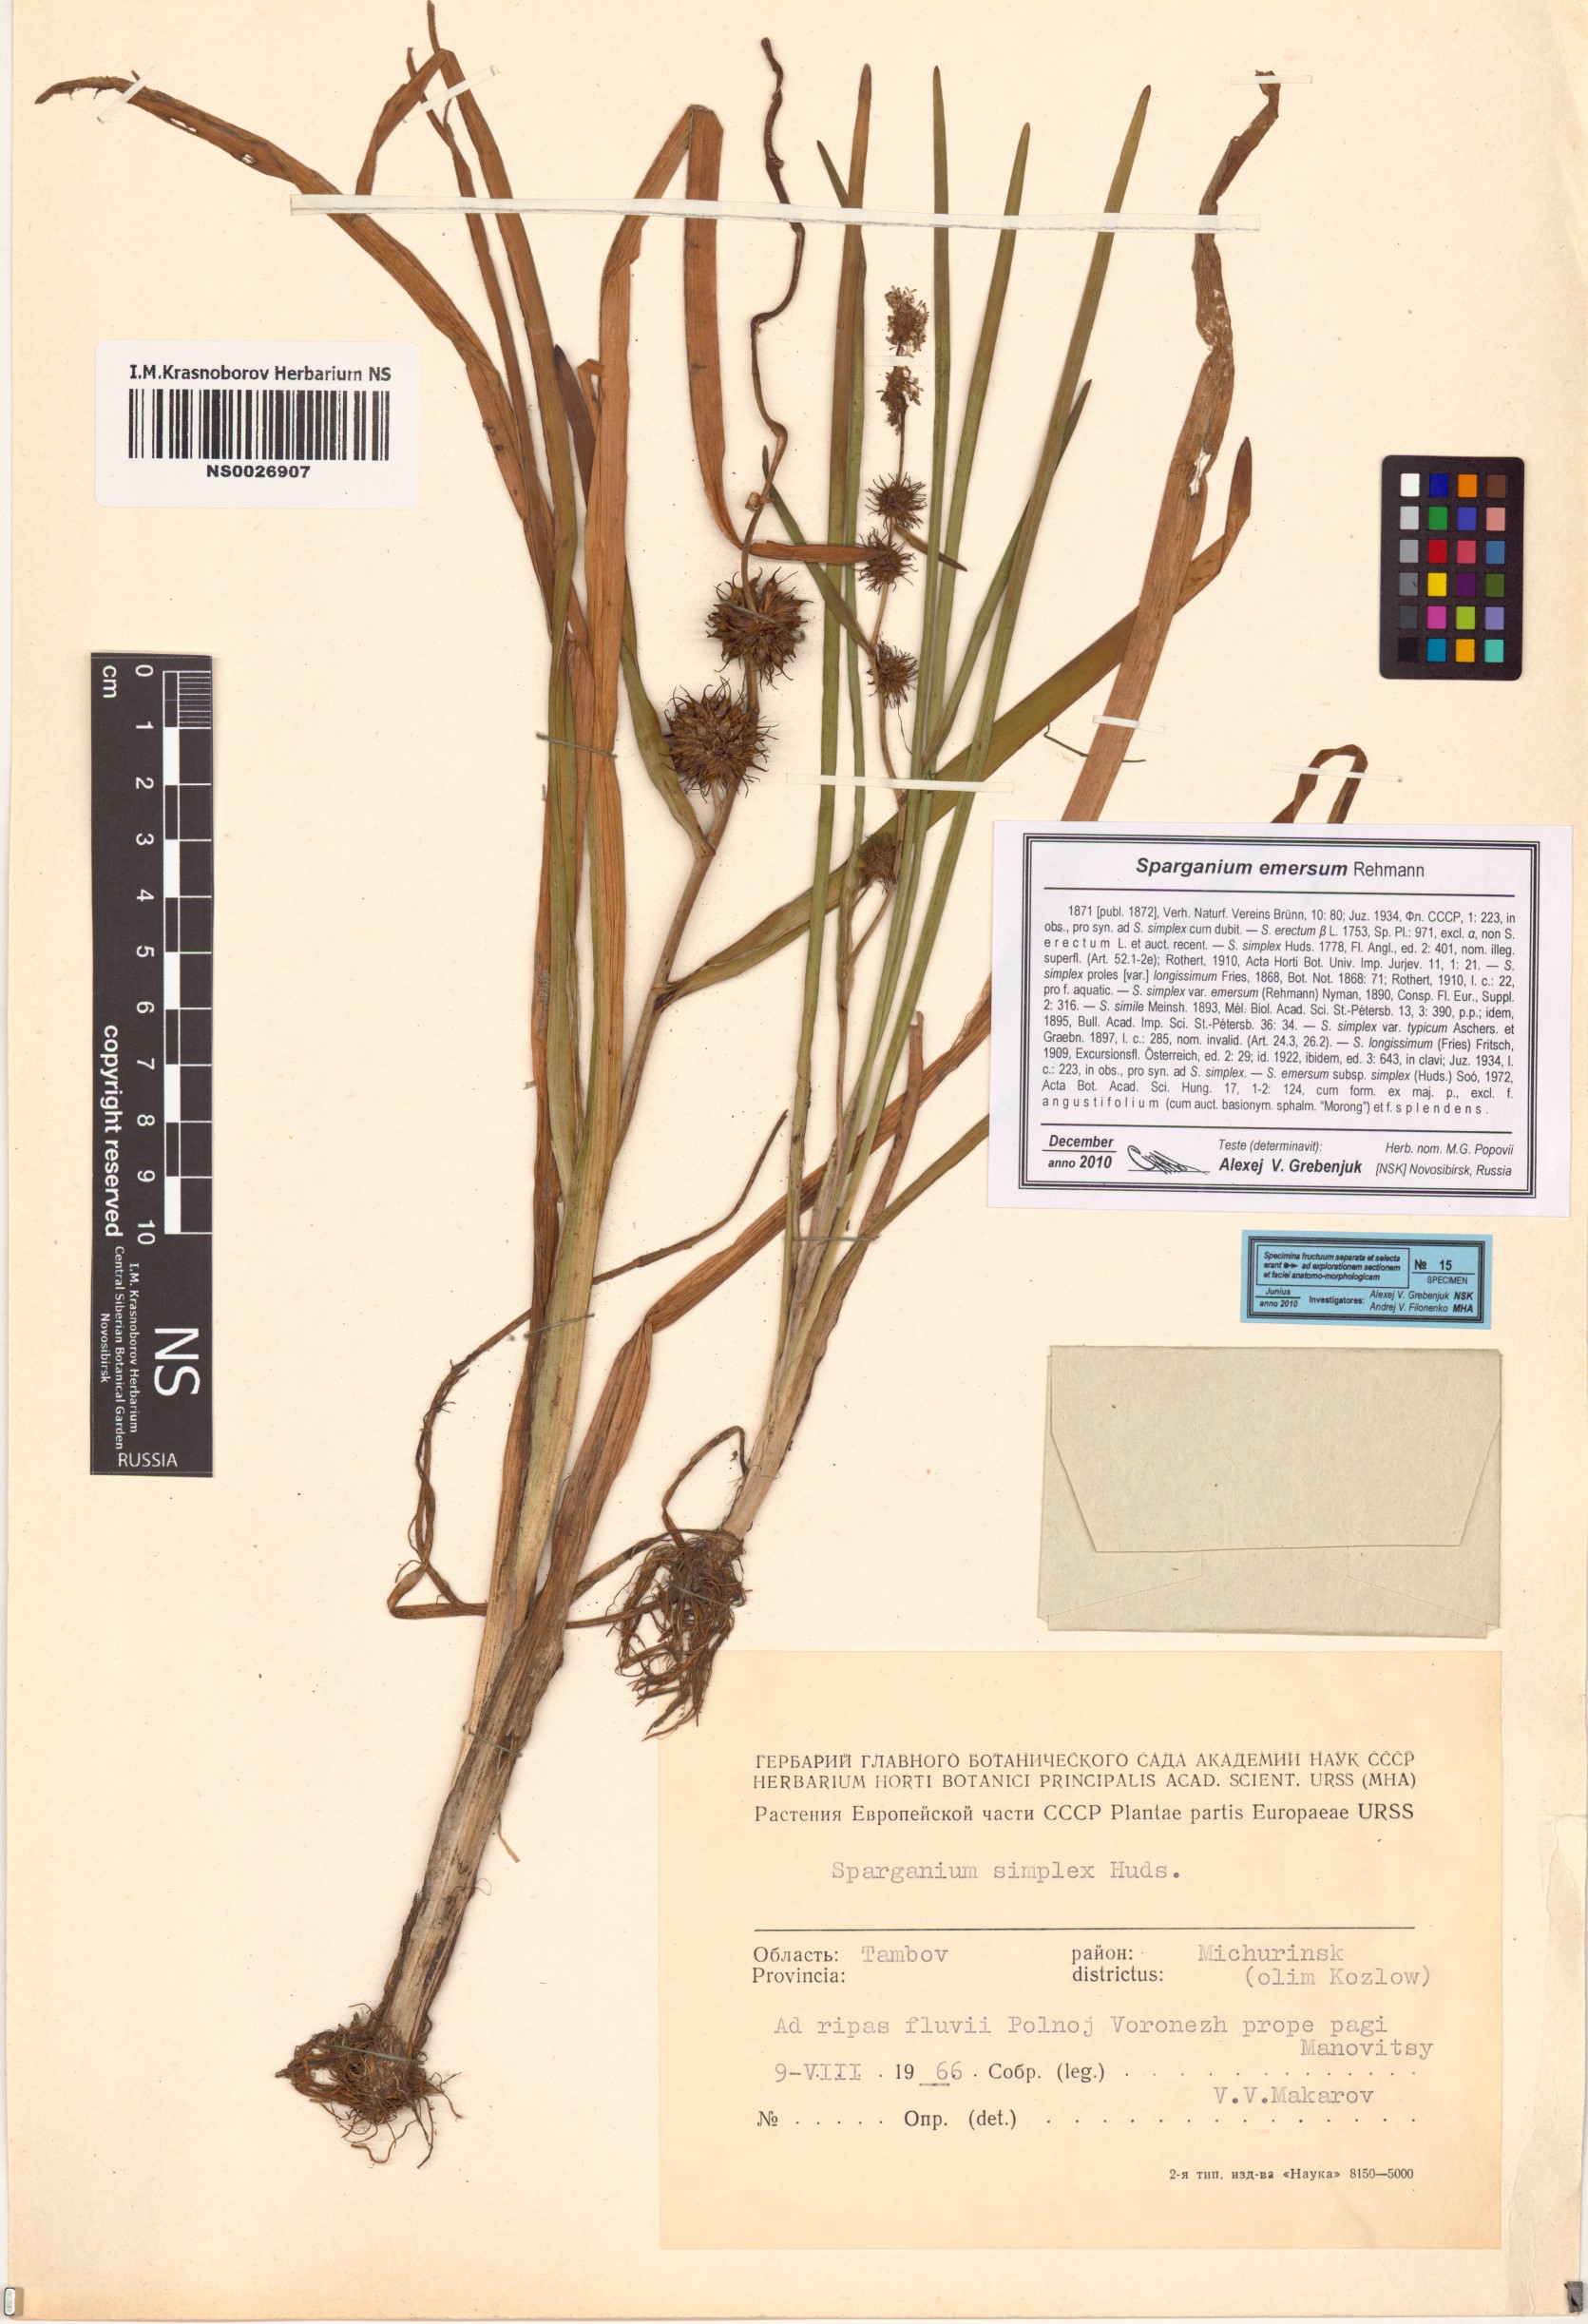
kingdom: Plantae
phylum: Tracheophyta
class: Liliopsida
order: Poales
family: Typhaceae
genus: Sparganium
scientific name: Sparganium emersum
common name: Unbranched bur-reed
